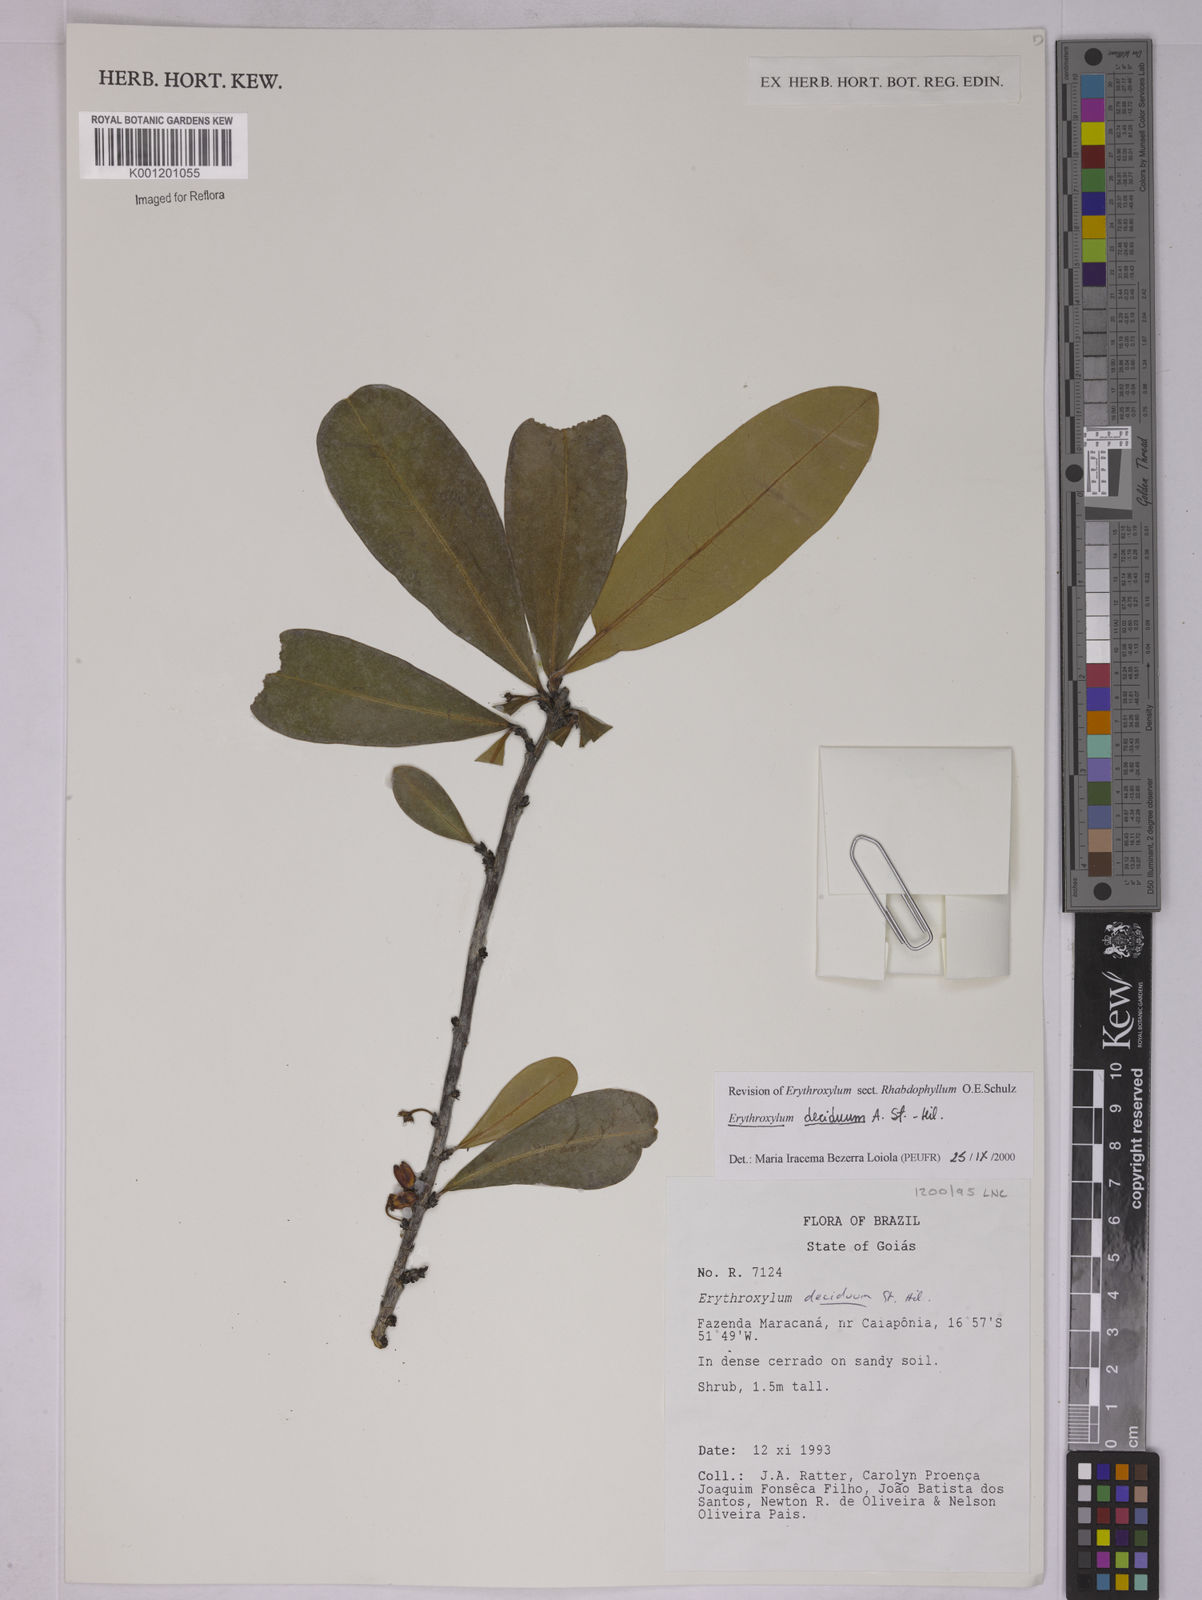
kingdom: Plantae
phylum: Tracheophyta
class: Magnoliopsida
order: Malpighiales
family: Erythroxylaceae
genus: Erythroxylum
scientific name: Erythroxylum deciduum
